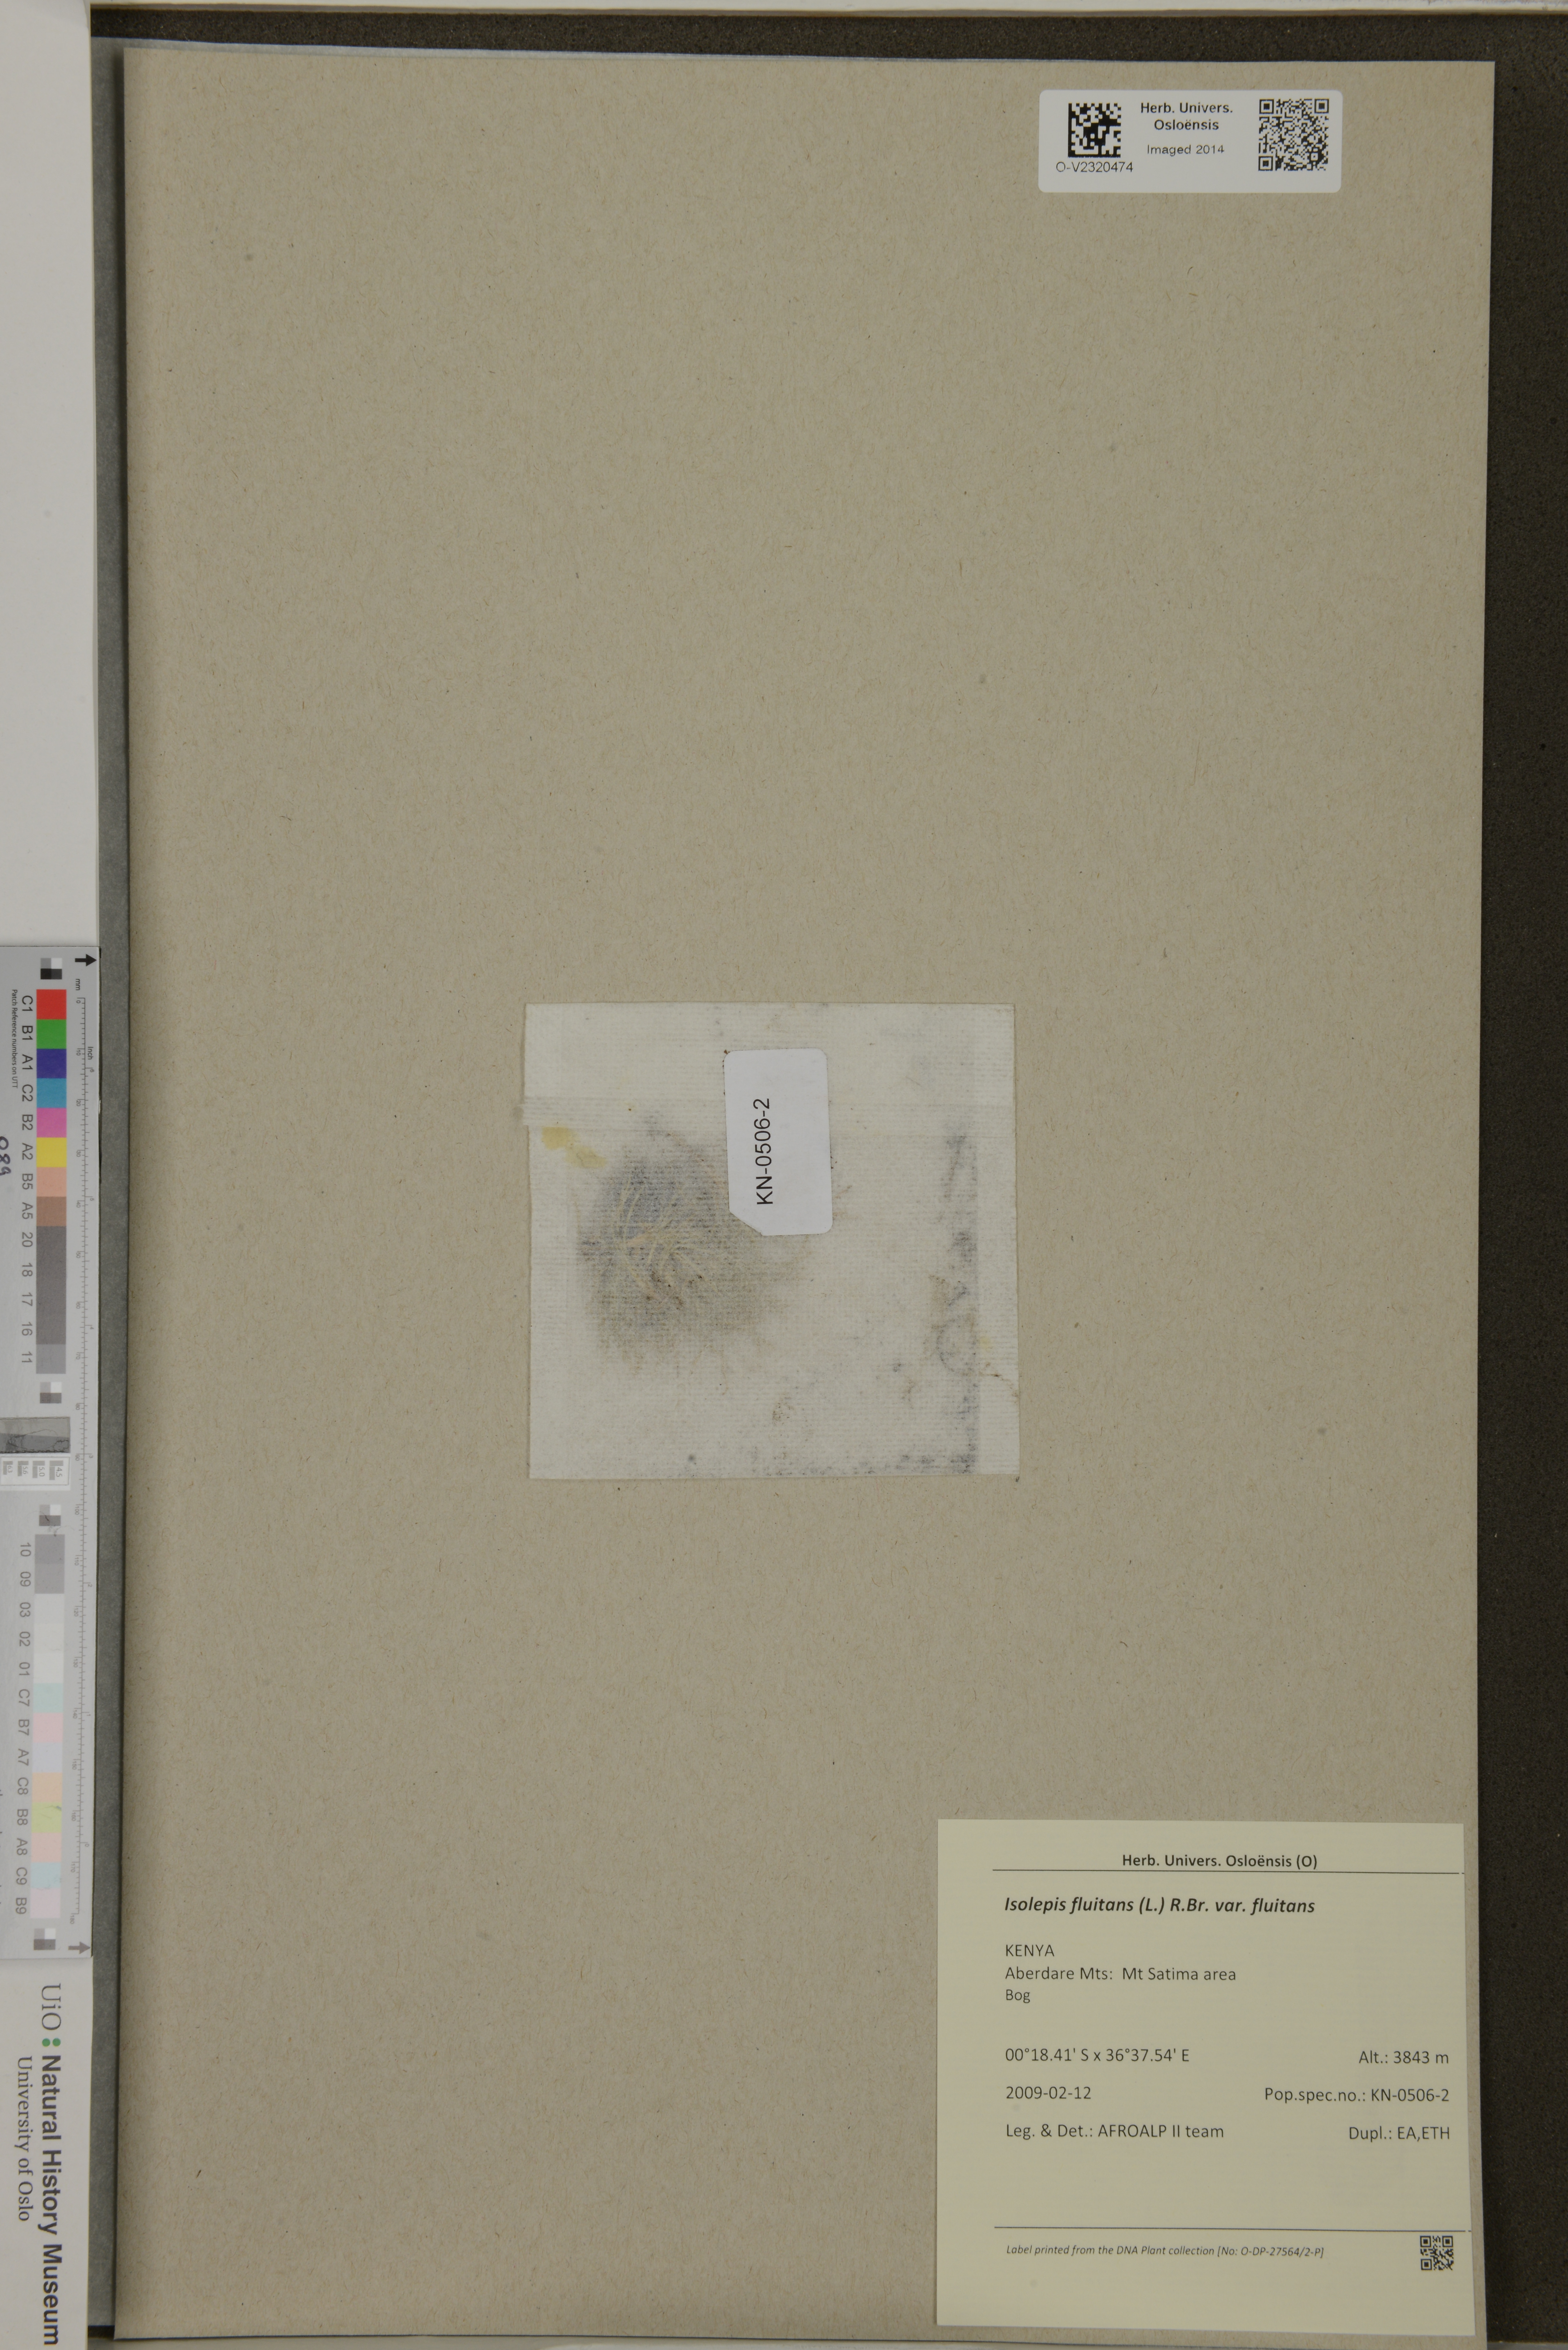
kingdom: Plantae
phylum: Tracheophyta
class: Liliopsida
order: Poales
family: Cyperaceae
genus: Isolepis
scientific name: Isolepis fluitans
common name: Floating club-rush
